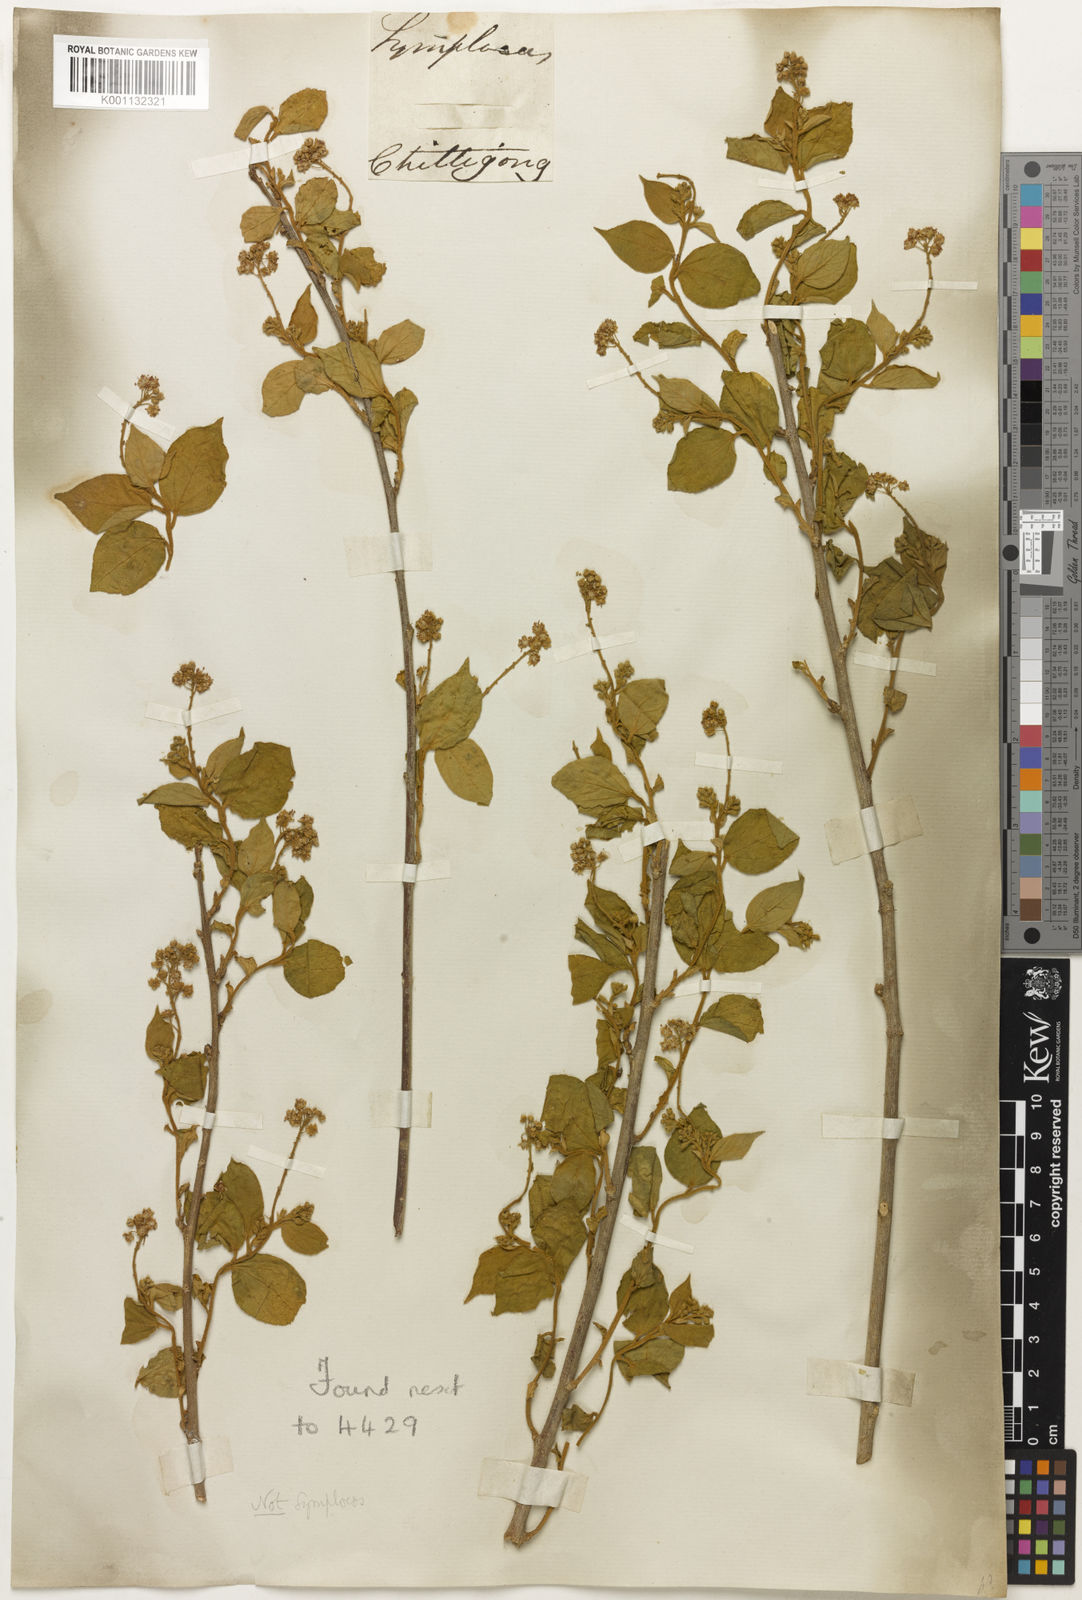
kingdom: Plantae
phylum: Tracheophyta
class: Magnoliopsida
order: Malvales
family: Tiliaceae
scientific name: Tiliaceae
